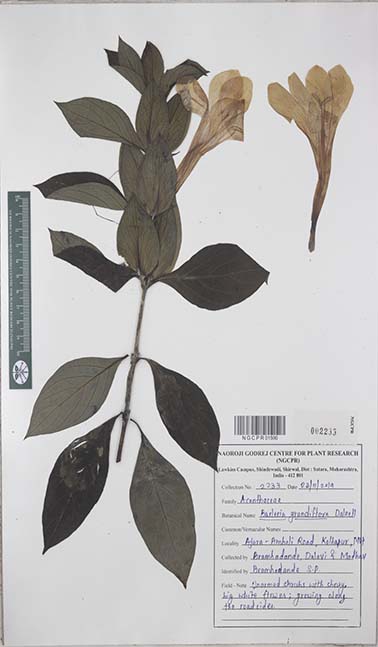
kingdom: Plantae
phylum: Tracheophyta
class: Magnoliopsida
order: Lamiales
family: Acanthaceae
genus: Barleria
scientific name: Barleria grandiflora
